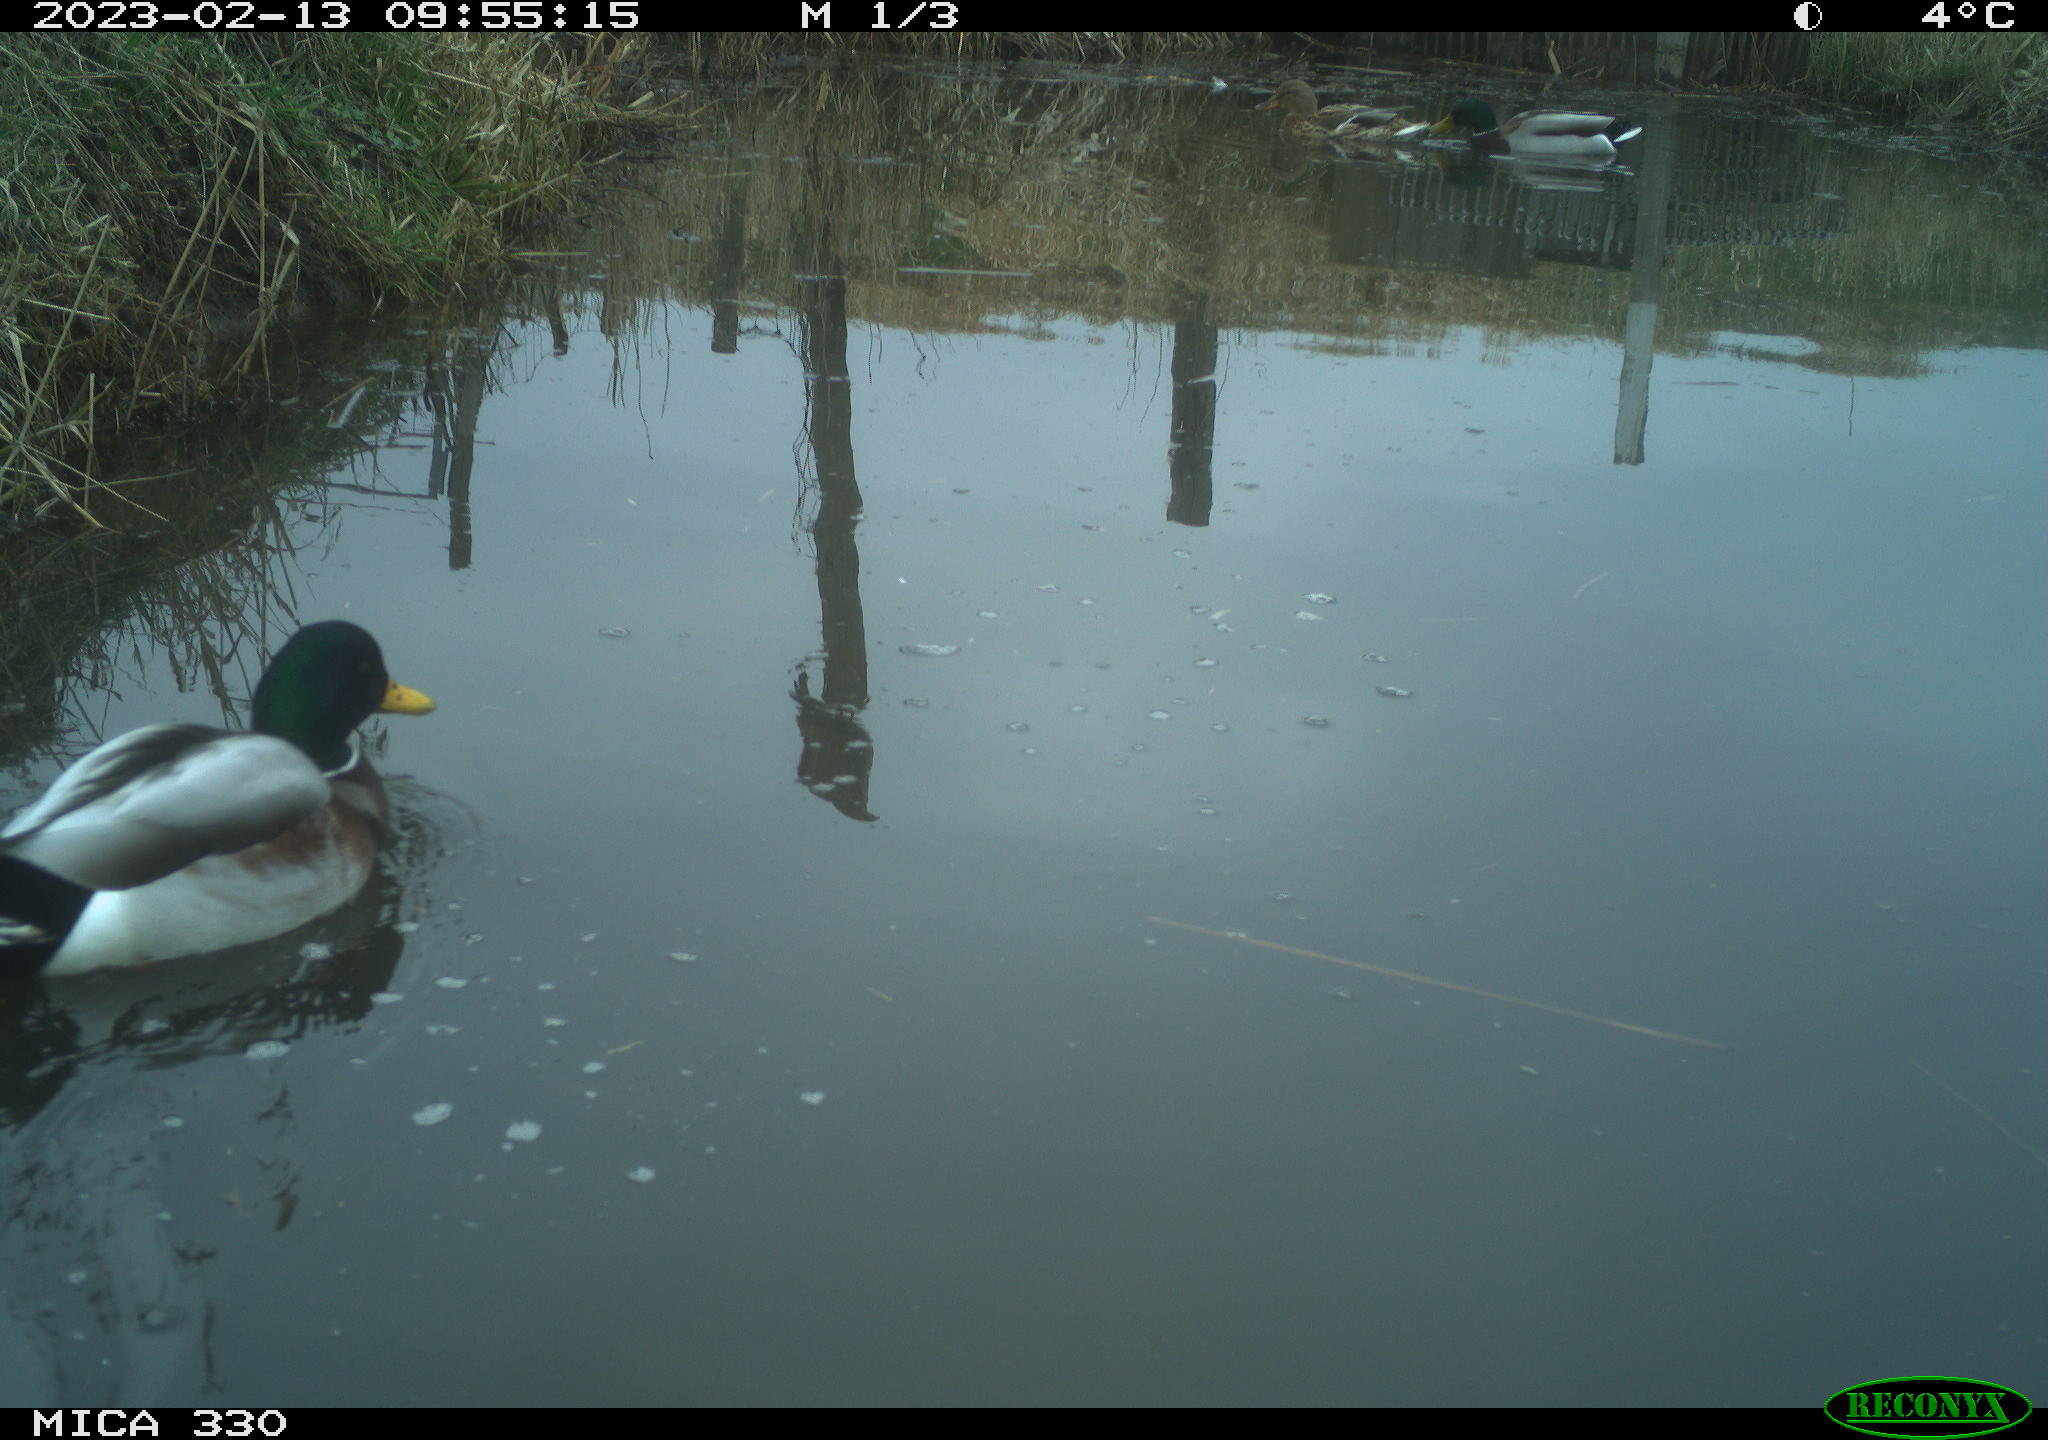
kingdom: Animalia
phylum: Chordata
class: Aves
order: Anseriformes
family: Anatidae
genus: Anas
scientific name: Anas
